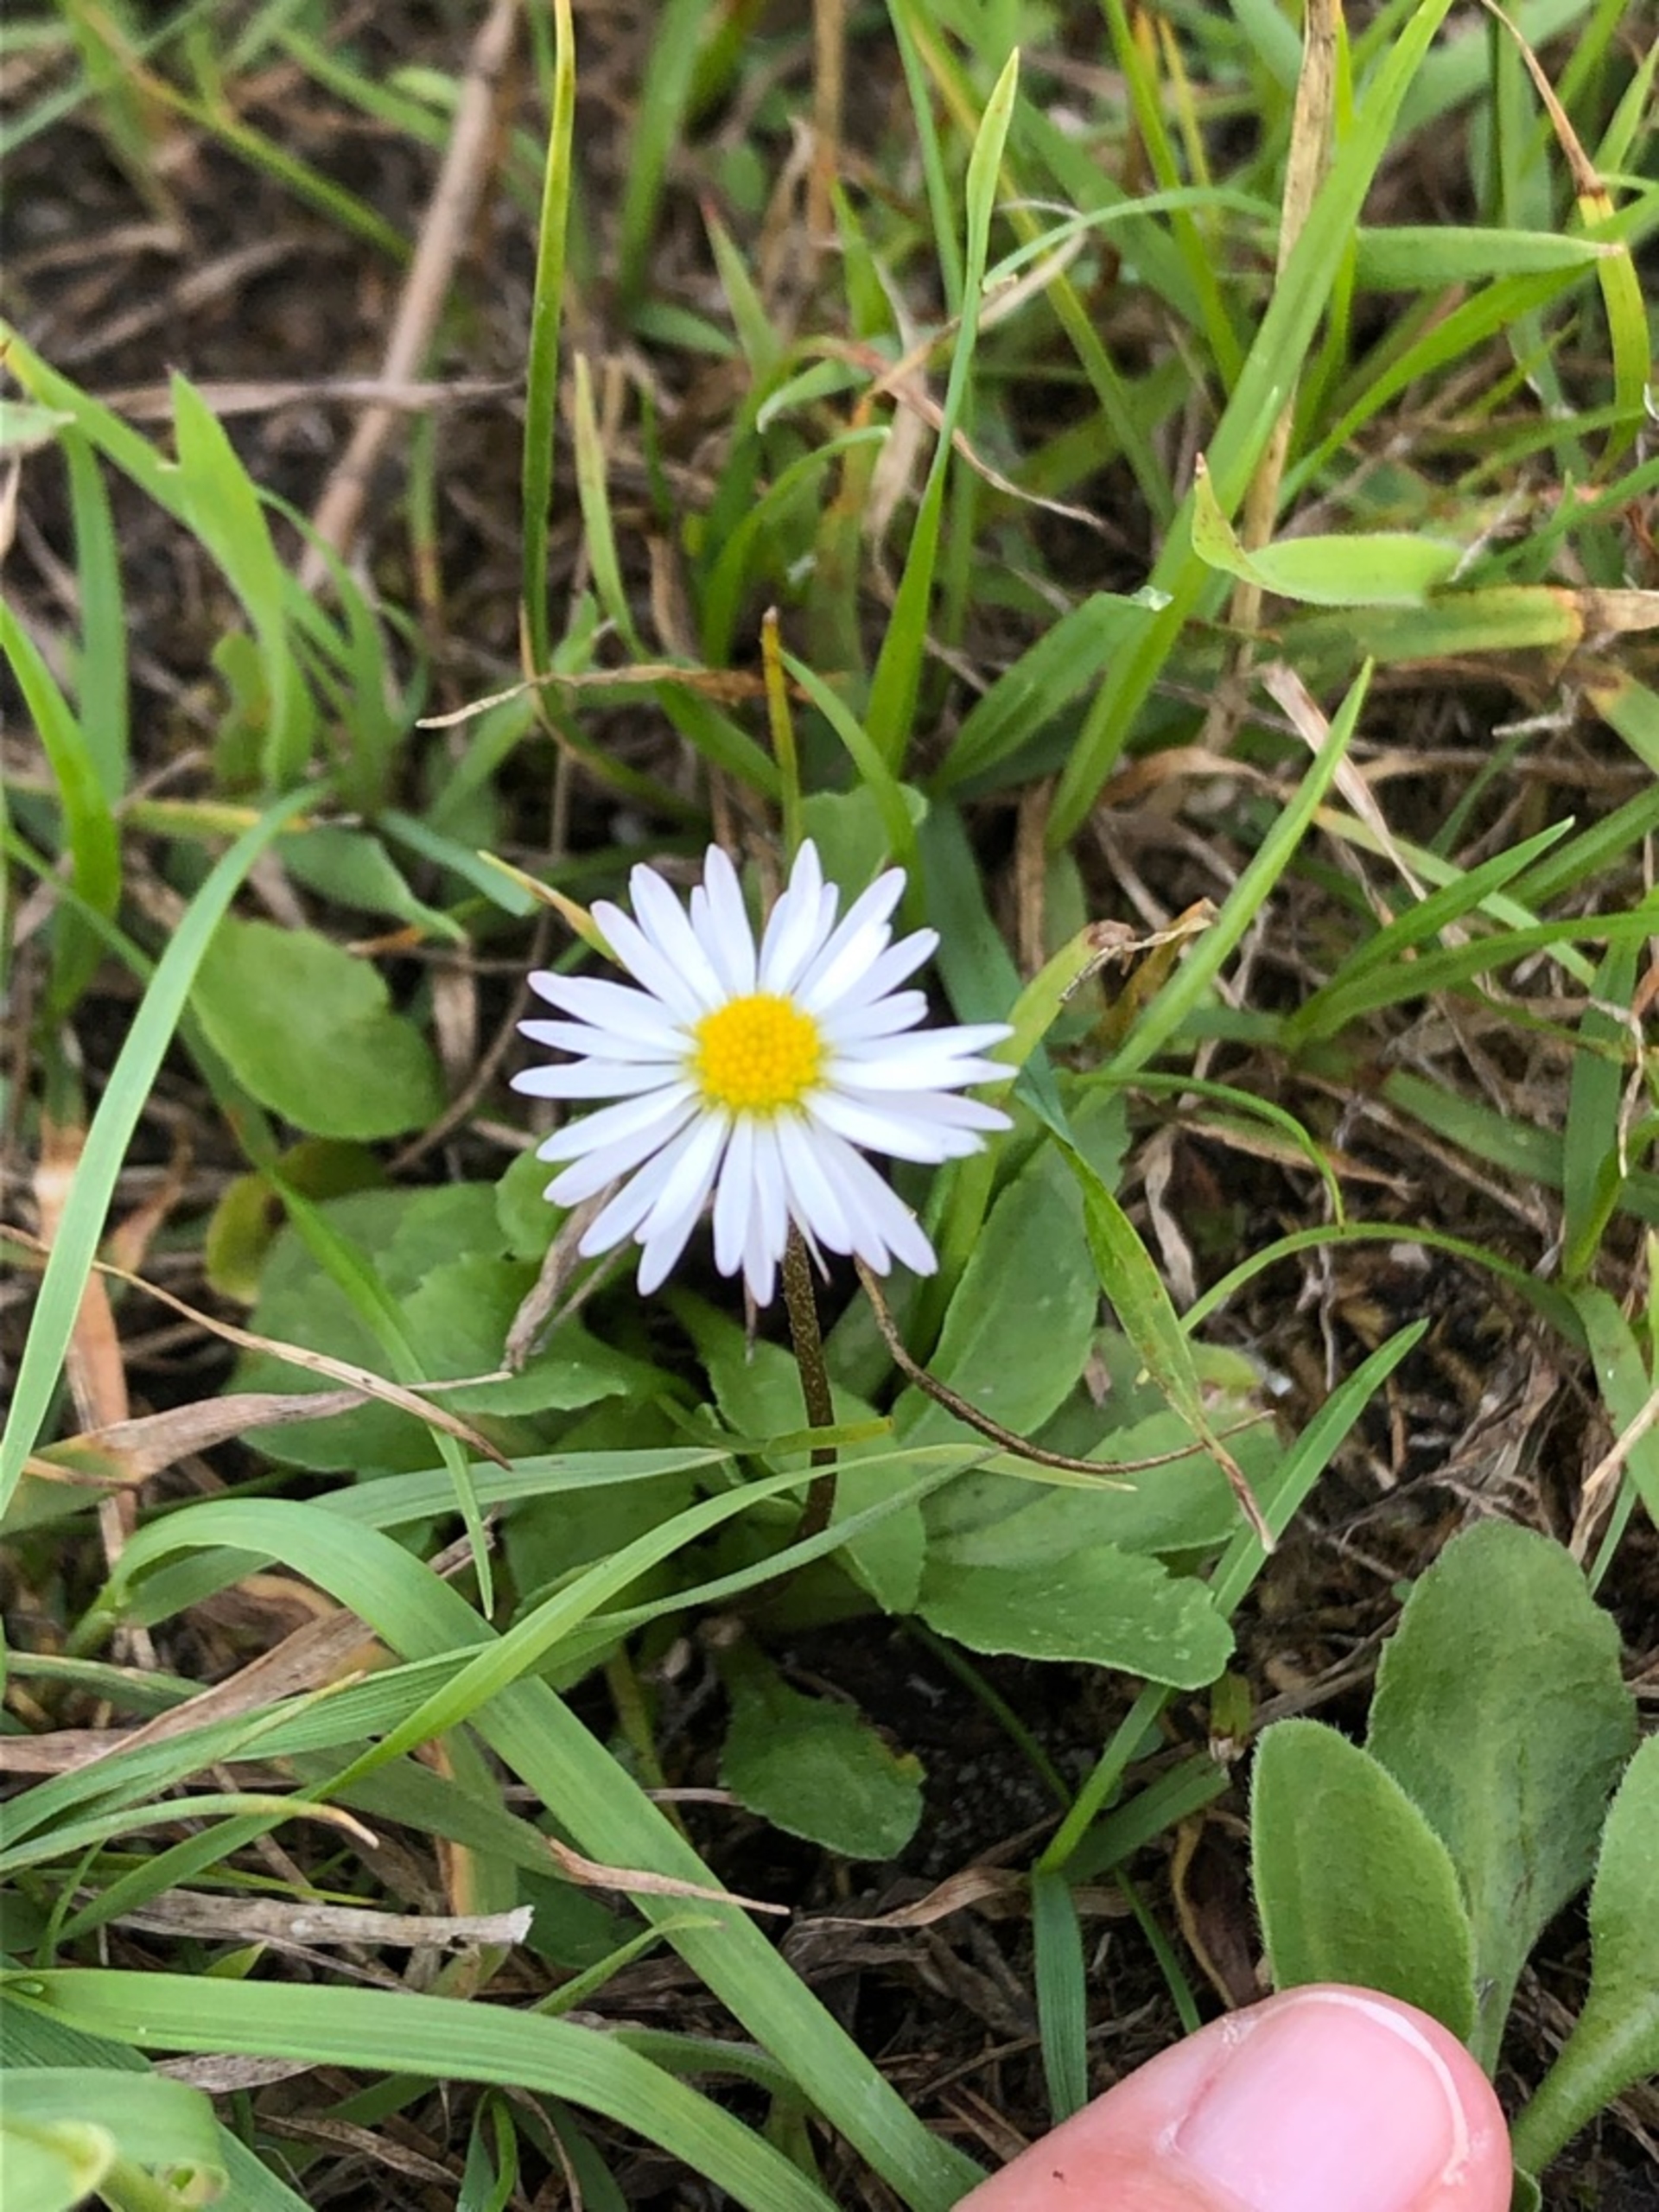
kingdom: Plantae
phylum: Tracheophyta
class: Magnoliopsida
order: Asterales
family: Asteraceae
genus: Bellis
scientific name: Bellis perennis
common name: Tusindfryd
